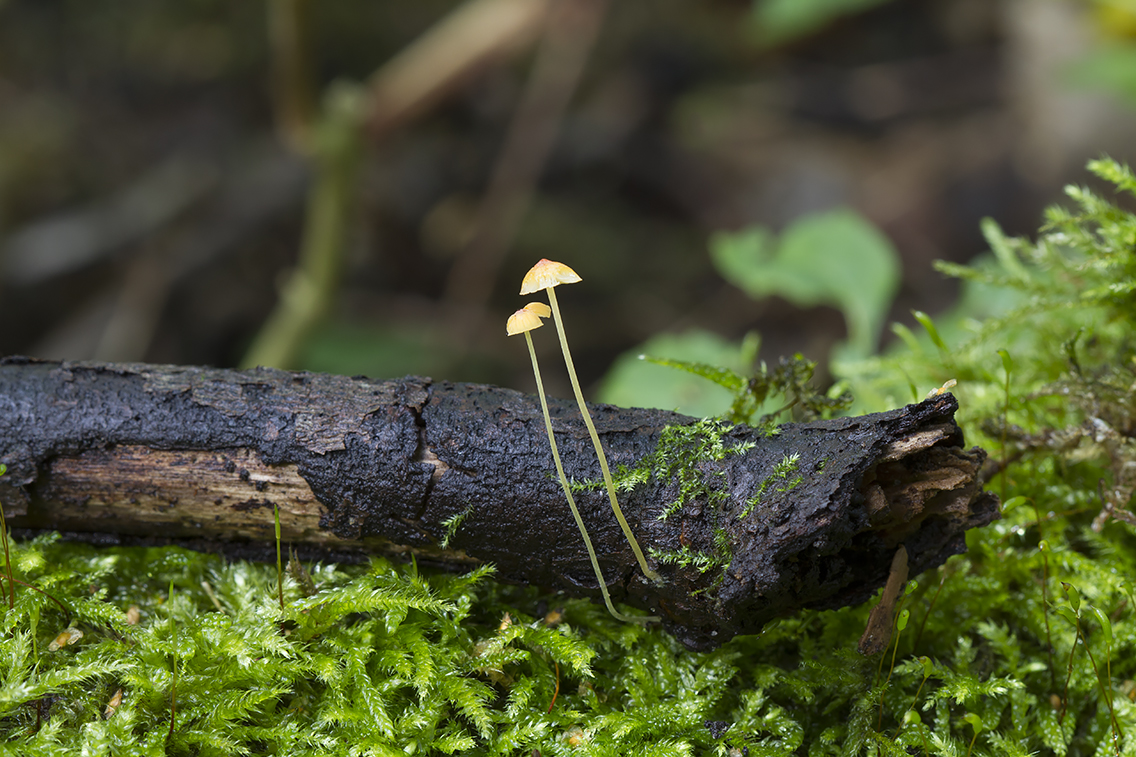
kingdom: Fungi
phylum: Basidiomycota
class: Agaricomycetes
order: Agaricales
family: Mycenaceae
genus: Mycena
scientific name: Mycena acicula
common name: orange huesvamp
